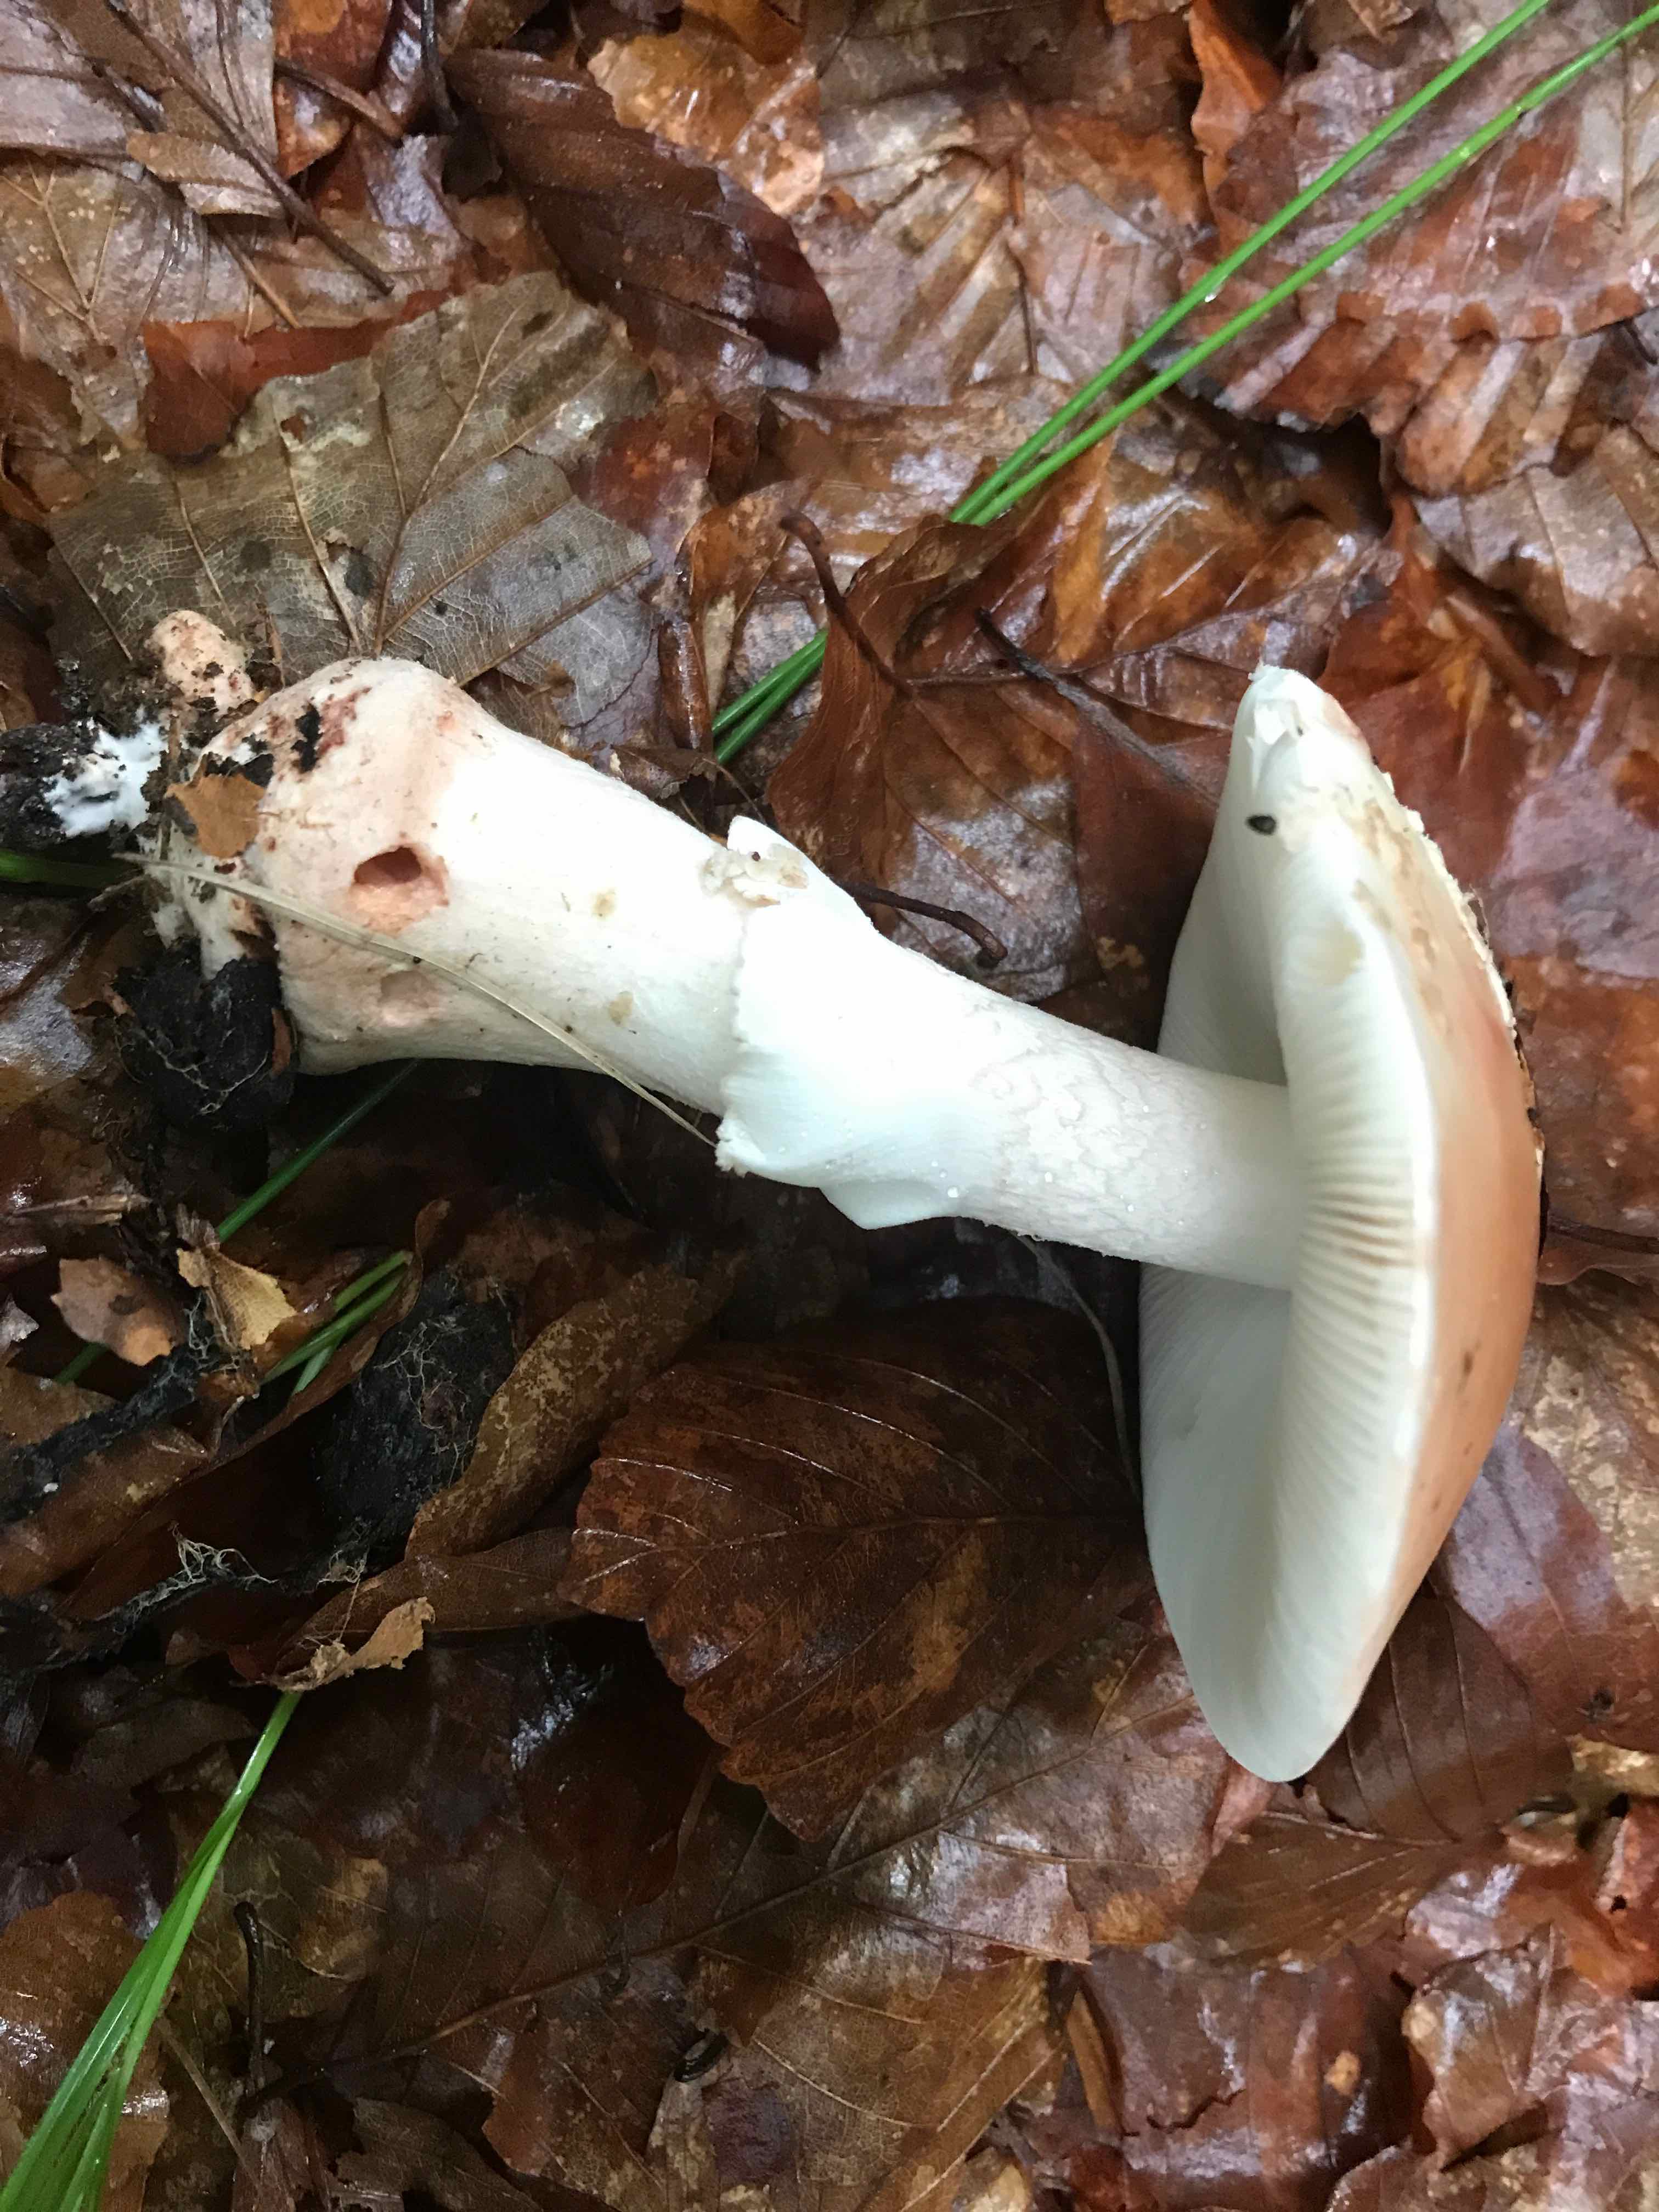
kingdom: Fungi
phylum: Basidiomycota
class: Agaricomycetes
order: Agaricales
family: Amanitaceae
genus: Amanita
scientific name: Amanita rubescens
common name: rødmende fluesvamp
